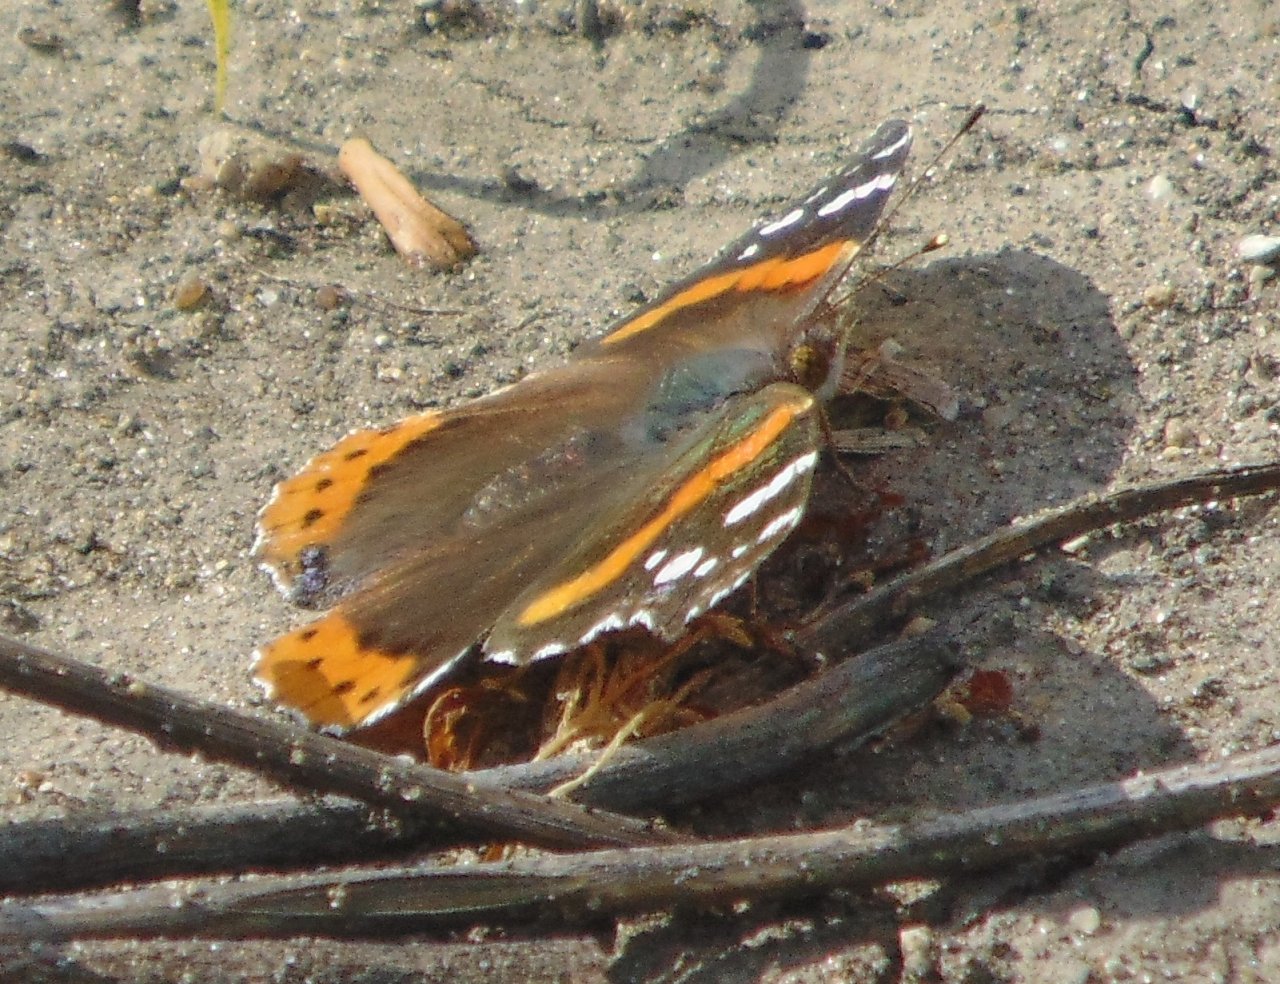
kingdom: Animalia
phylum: Arthropoda
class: Insecta
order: Lepidoptera
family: Nymphalidae
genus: Vanessa
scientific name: Vanessa atalanta
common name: Red Admiral
